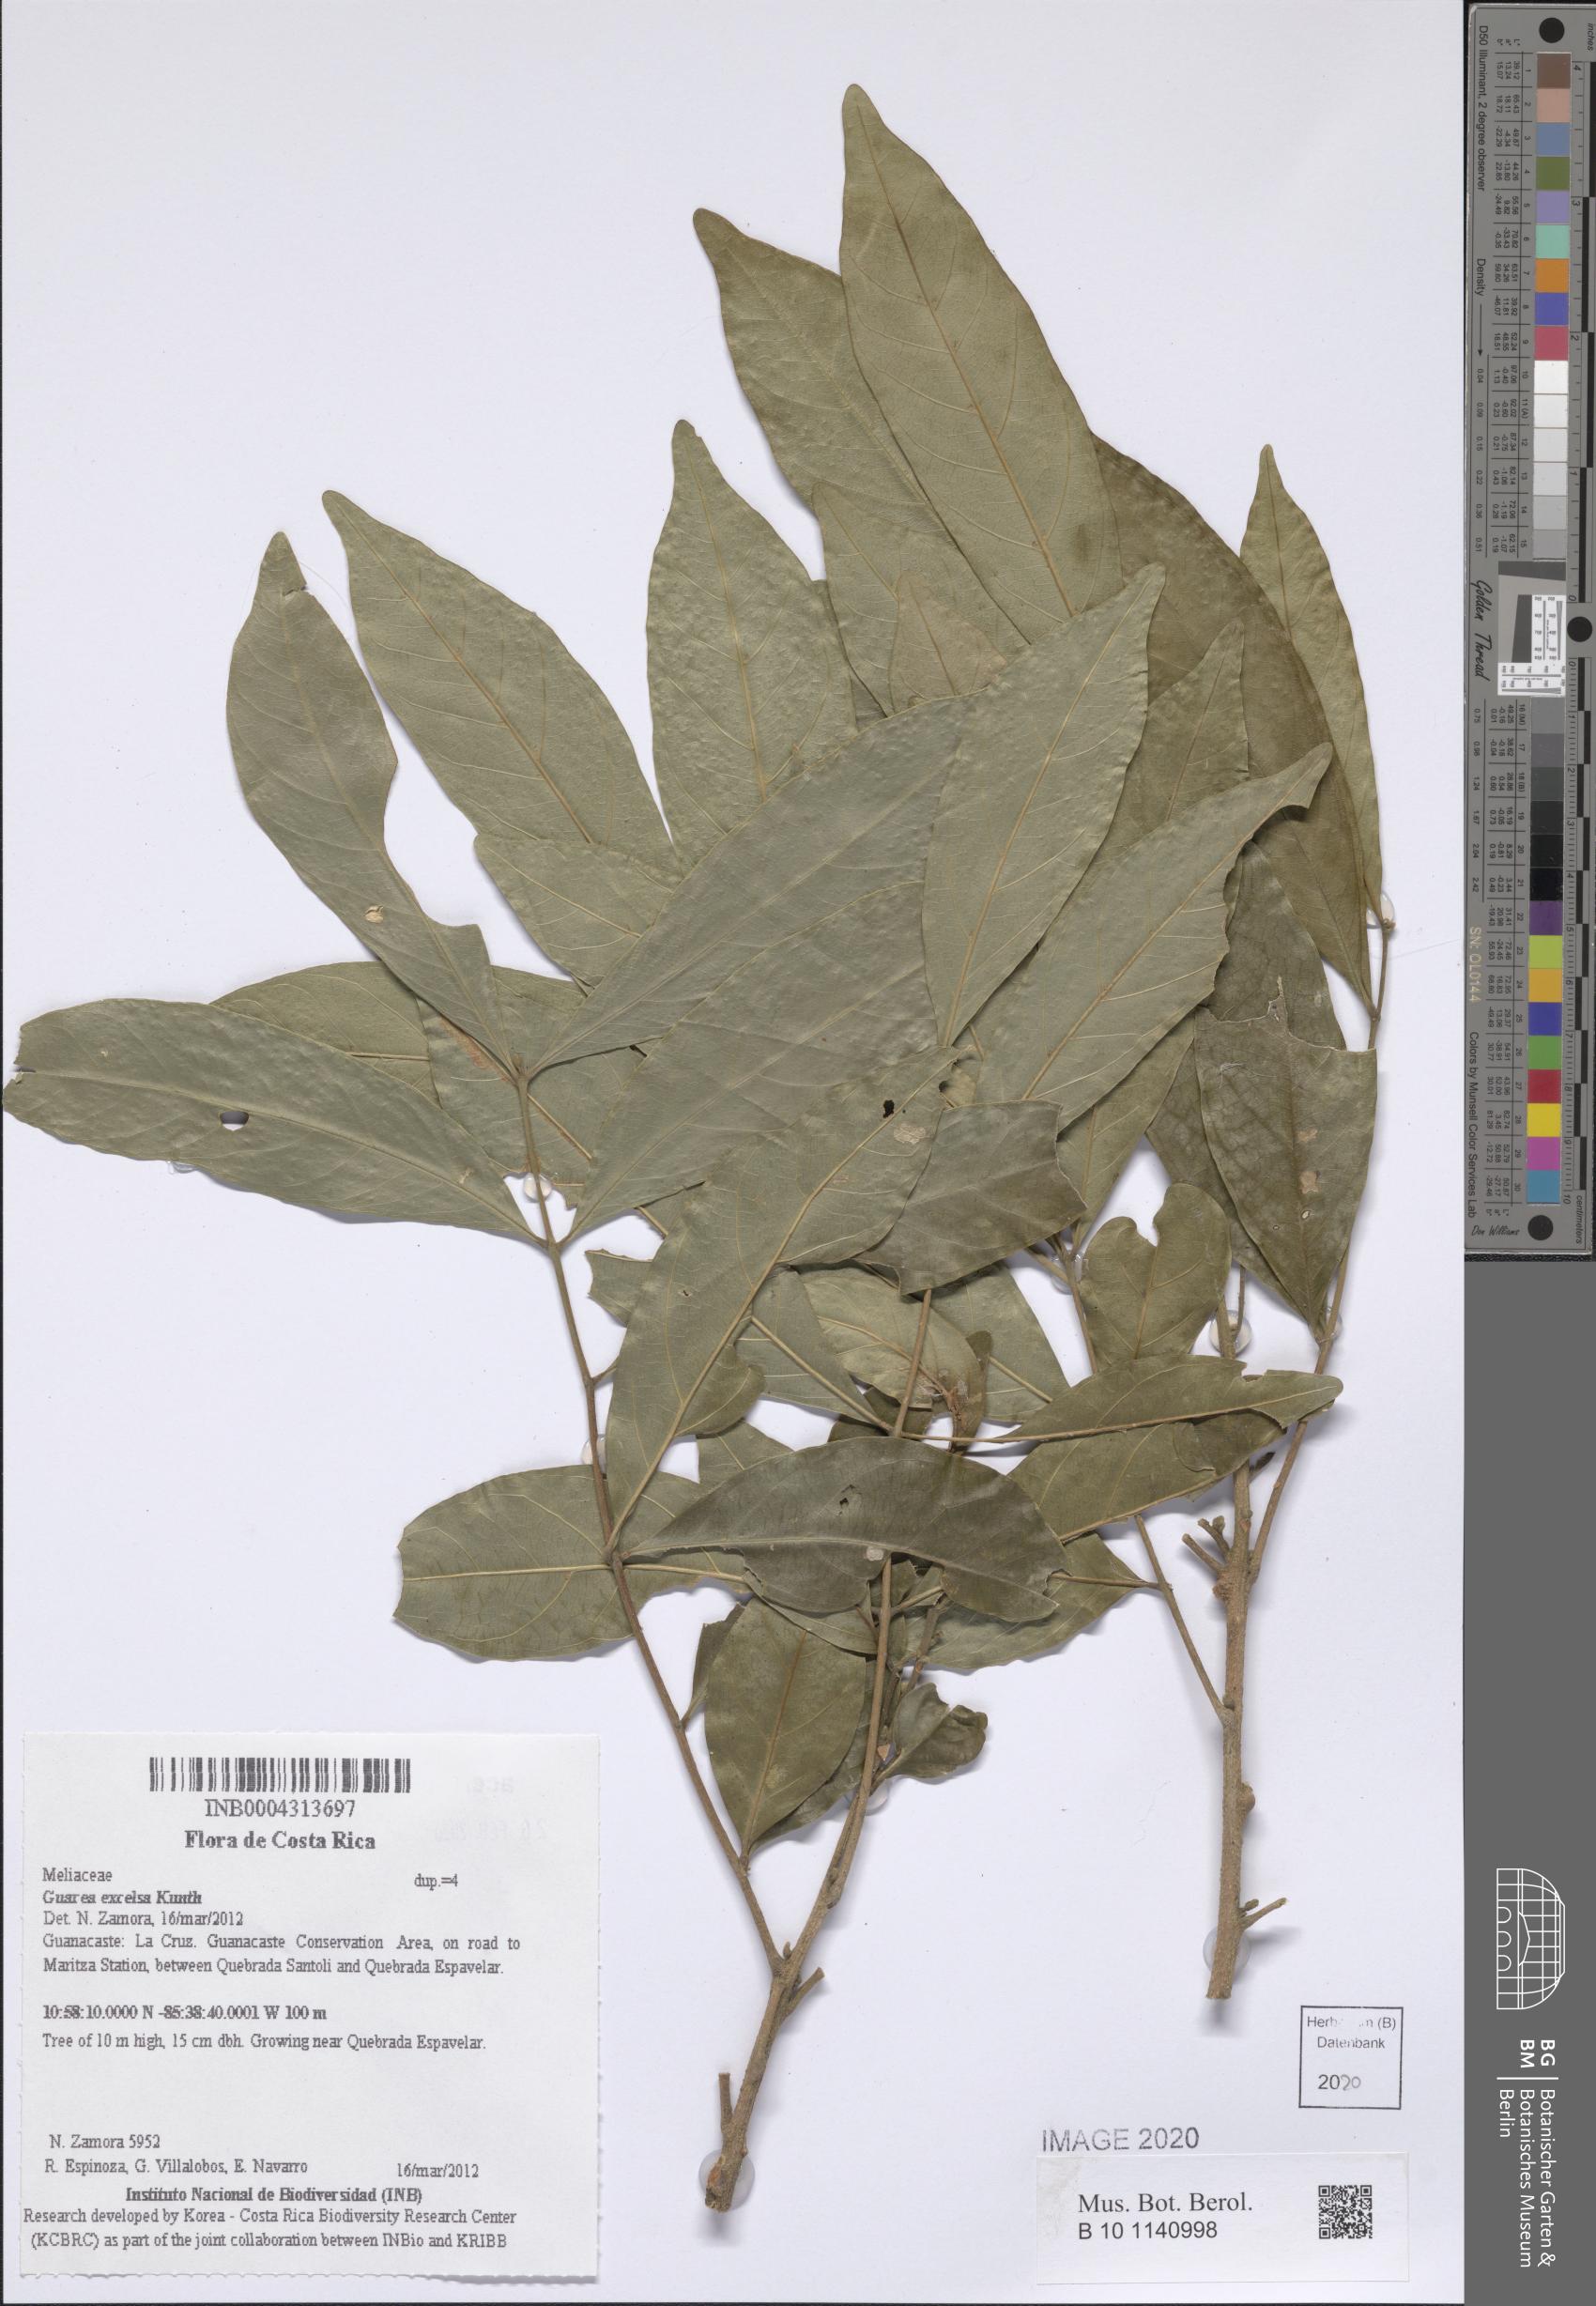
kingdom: Plantae
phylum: Tracheophyta
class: Magnoliopsida
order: Sapindales
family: Meliaceae
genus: Guarea
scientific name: Guarea glabra
